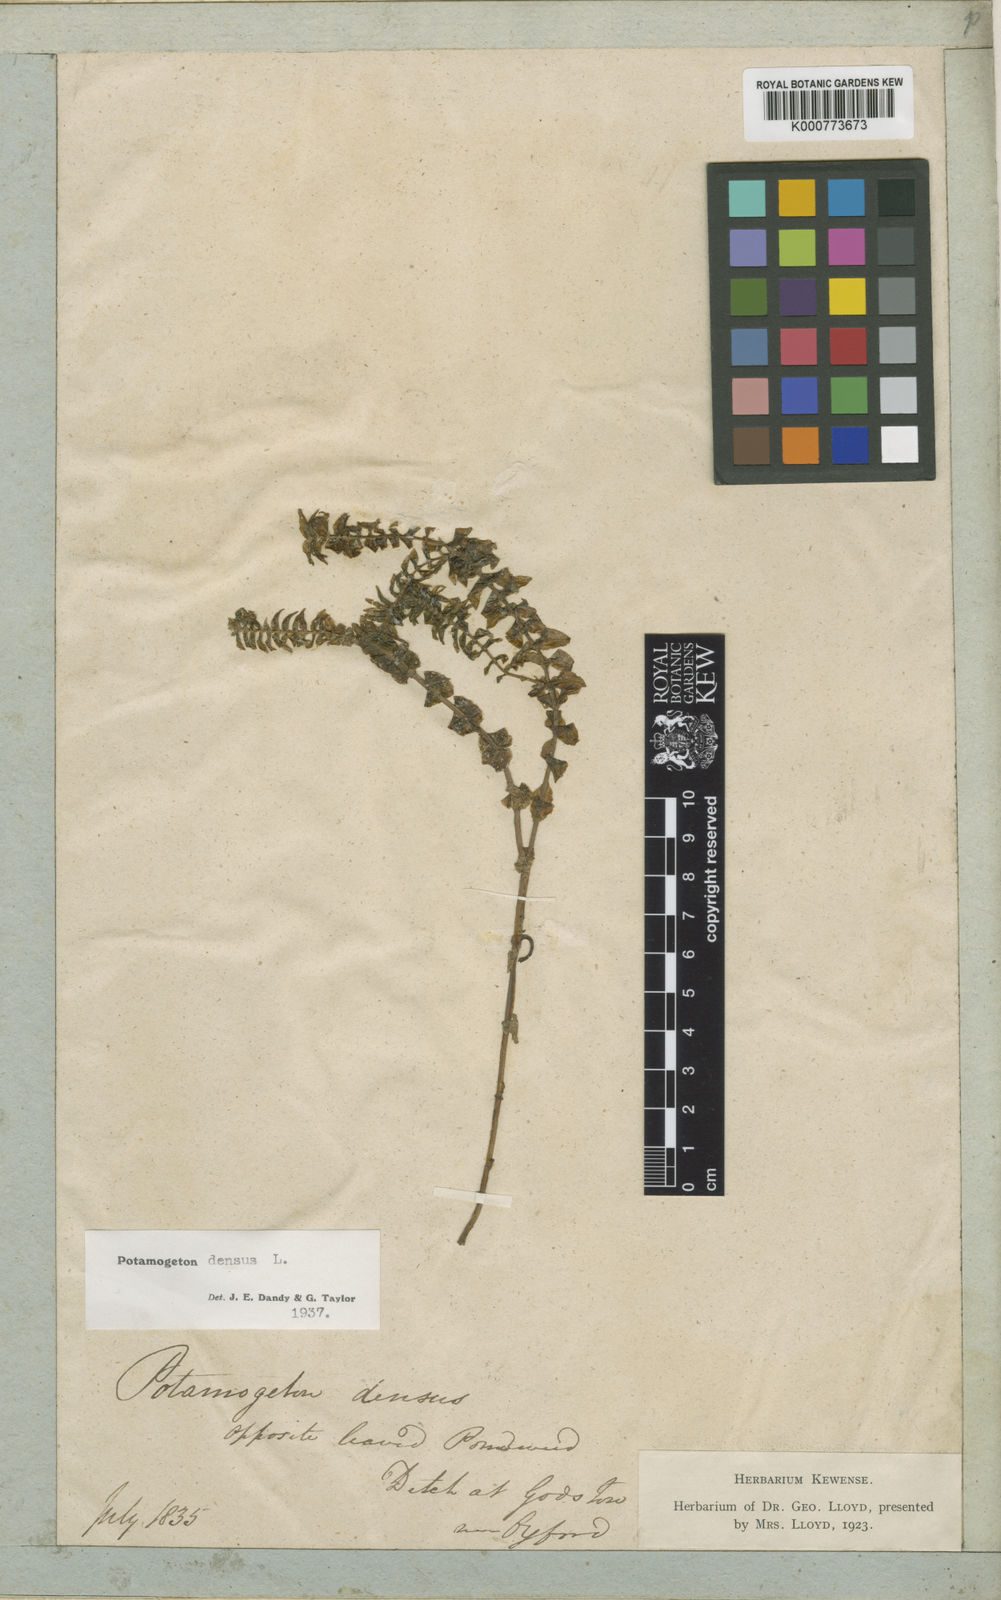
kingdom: Plantae
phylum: Tracheophyta
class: Liliopsida
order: Alismatales
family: Potamogetonaceae
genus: Groenlandia
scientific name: Groenlandia densa
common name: Opposite-leaved pondweed
